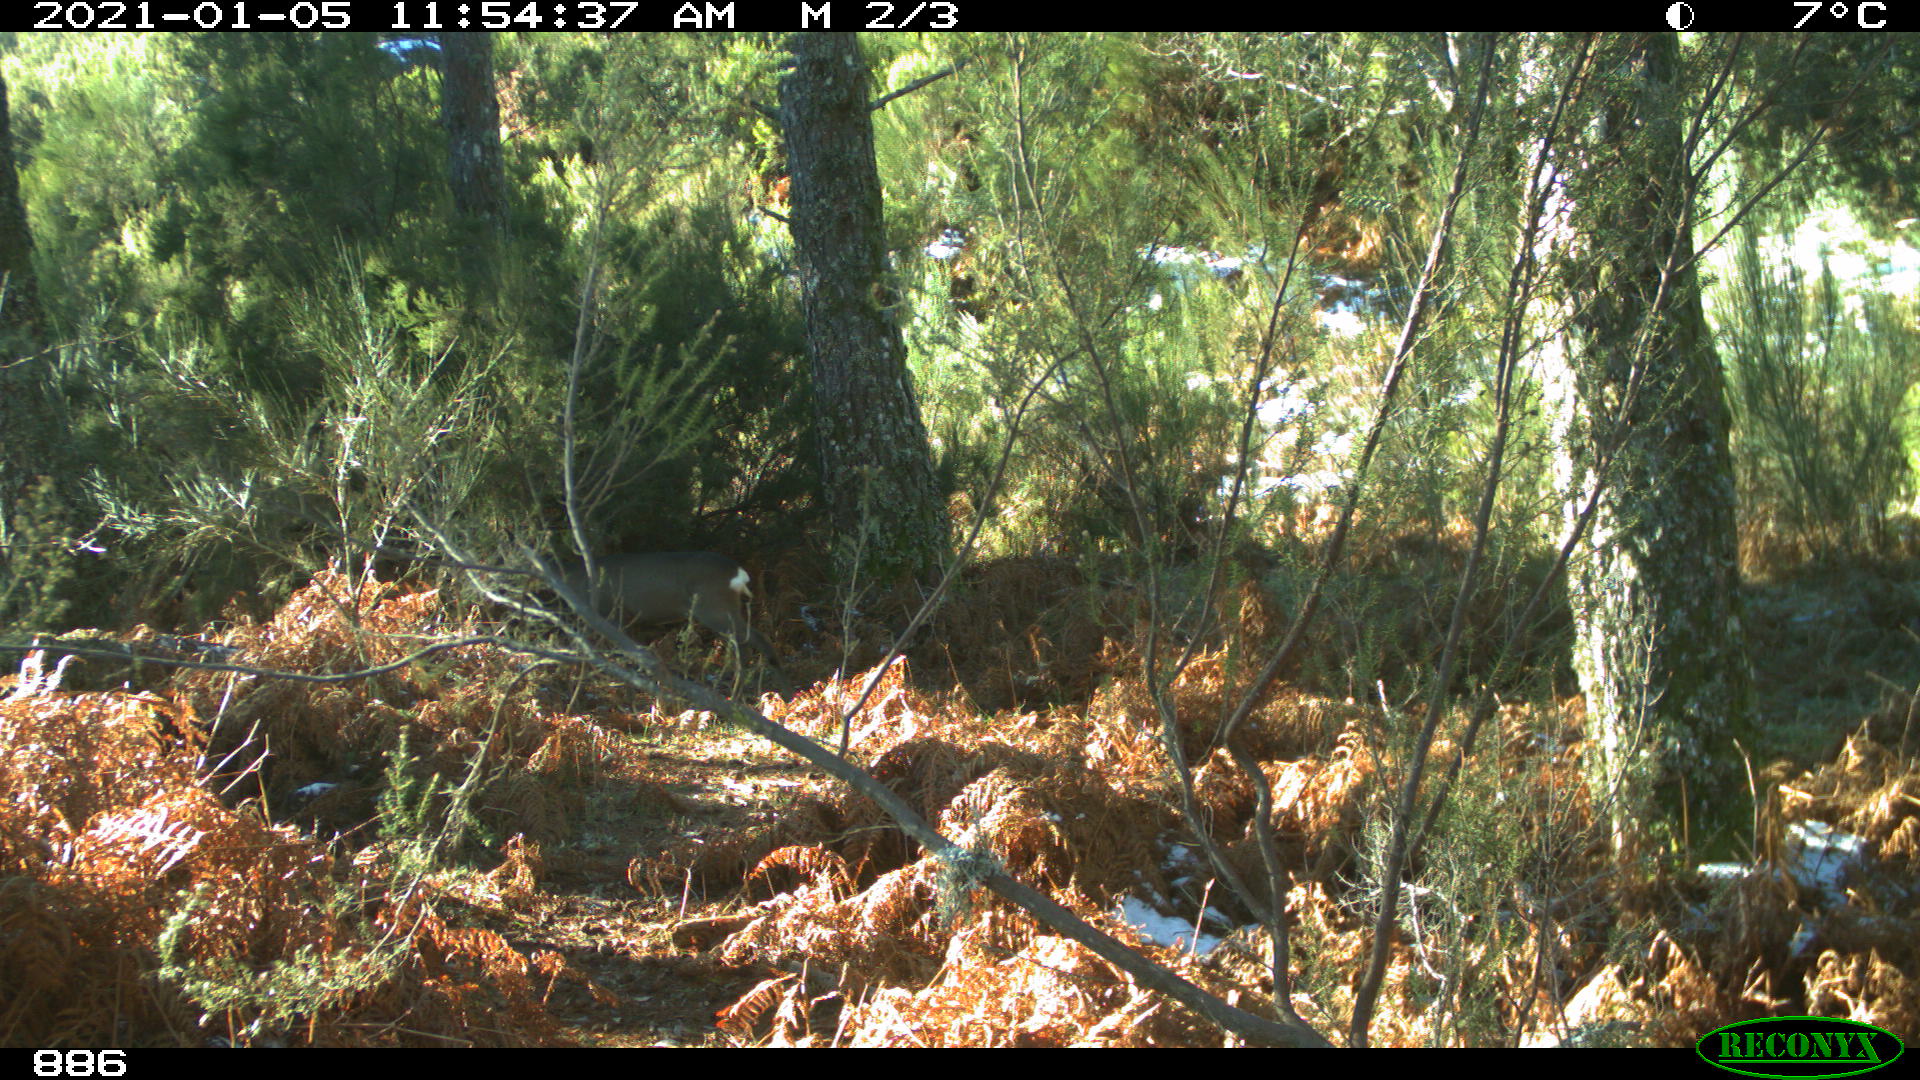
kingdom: Animalia
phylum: Chordata
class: Mammalia
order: Artiodactyla
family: Cervidae
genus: Capreolus
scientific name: Capreolus capreolus
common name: Western roe deer
